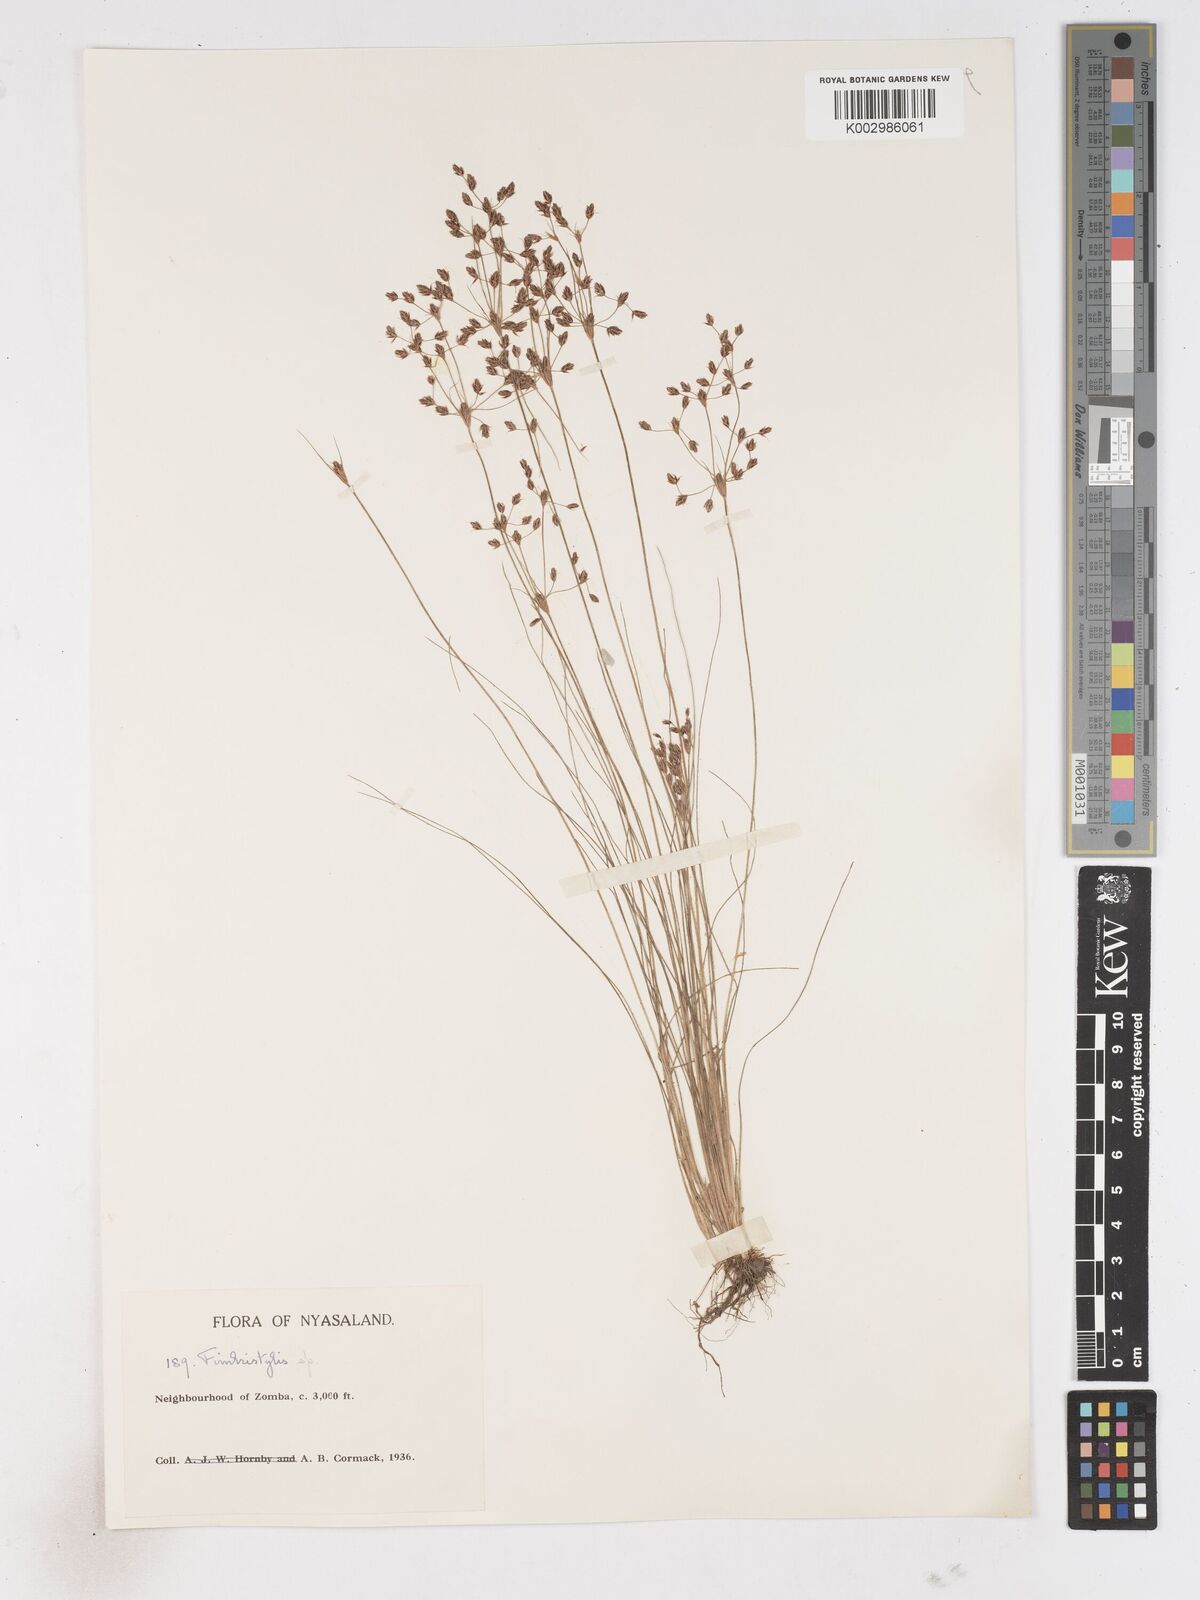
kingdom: Plantae
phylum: Tracheophyta
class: Liliopsida
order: Poales
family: Cyperaceae
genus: Fimbristylis
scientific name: Fimbristylis
